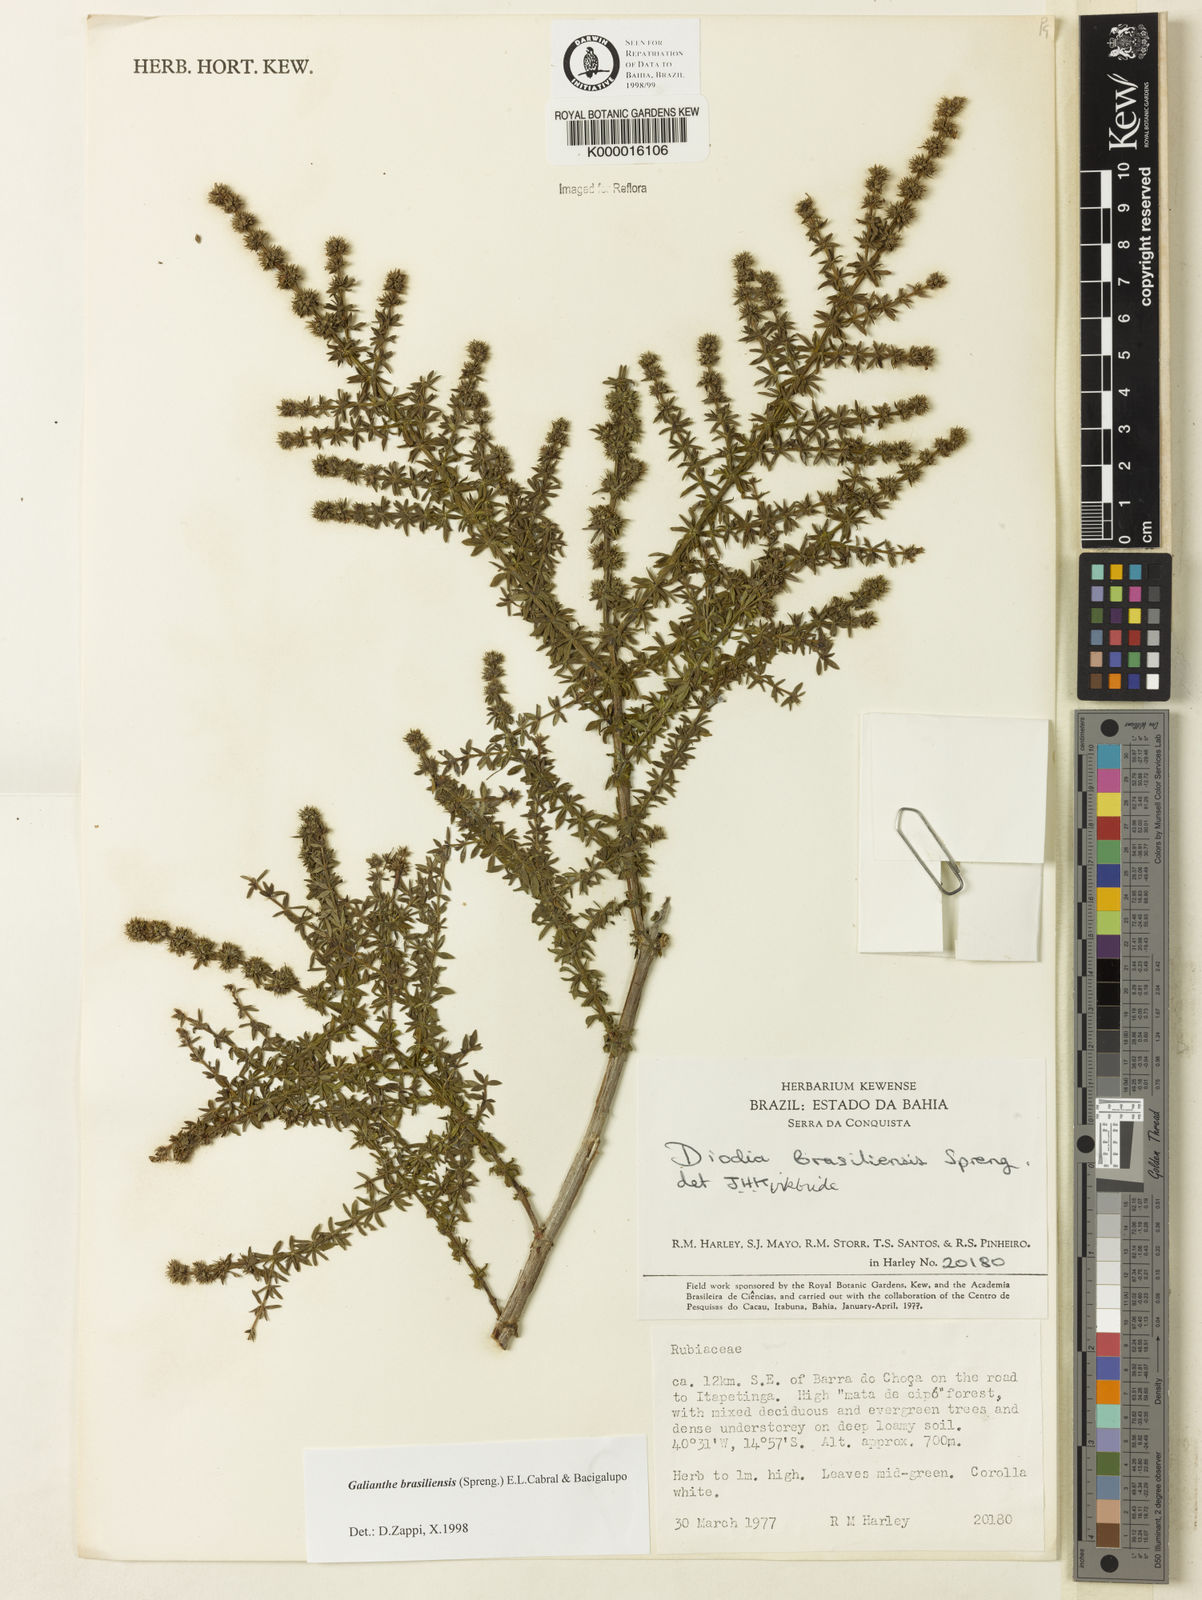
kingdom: Plantae
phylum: Tracheophyta
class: Magnoliopsida
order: Gentianales
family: Rubiaceae
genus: Galianthe
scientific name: Galianthe brasiliensis
